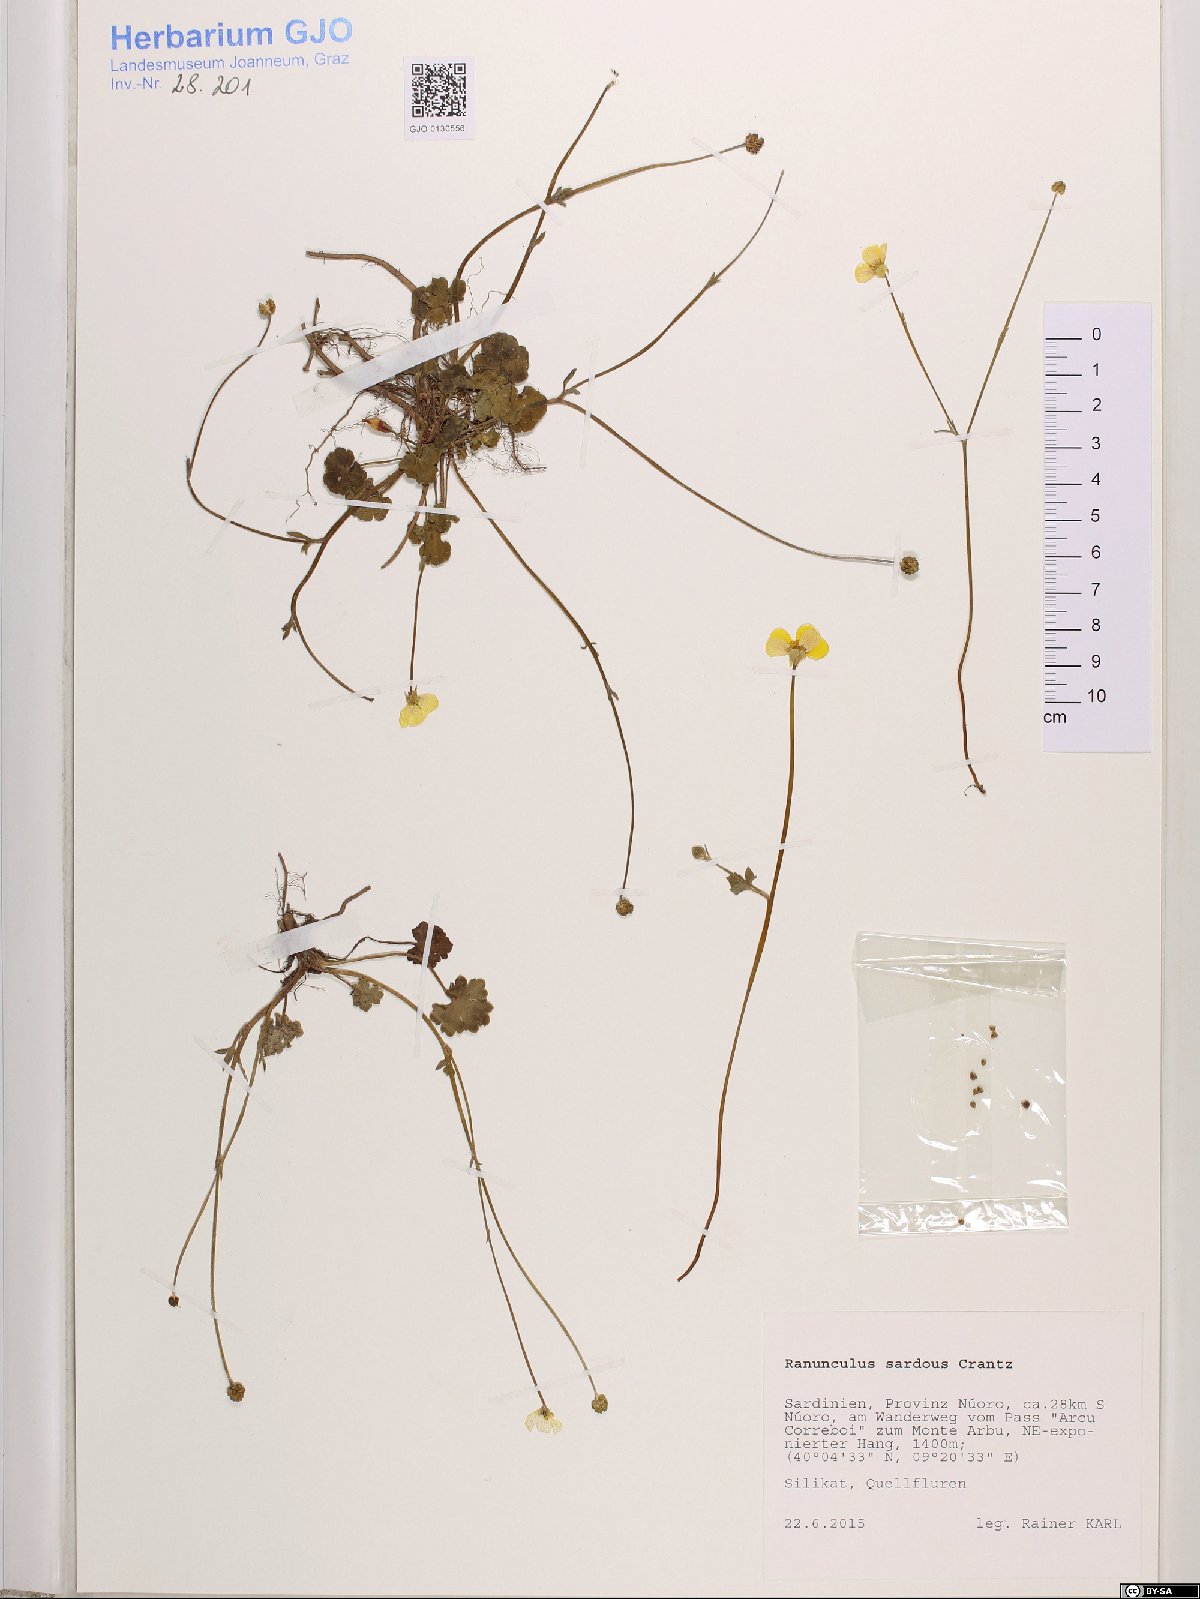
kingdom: Plantae
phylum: Tracheophyta
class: Magnoliopsida
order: Ranunculales
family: Ranunculaceae
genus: Ranunculus
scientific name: Ranunculus sardous
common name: Hairy buttercup
